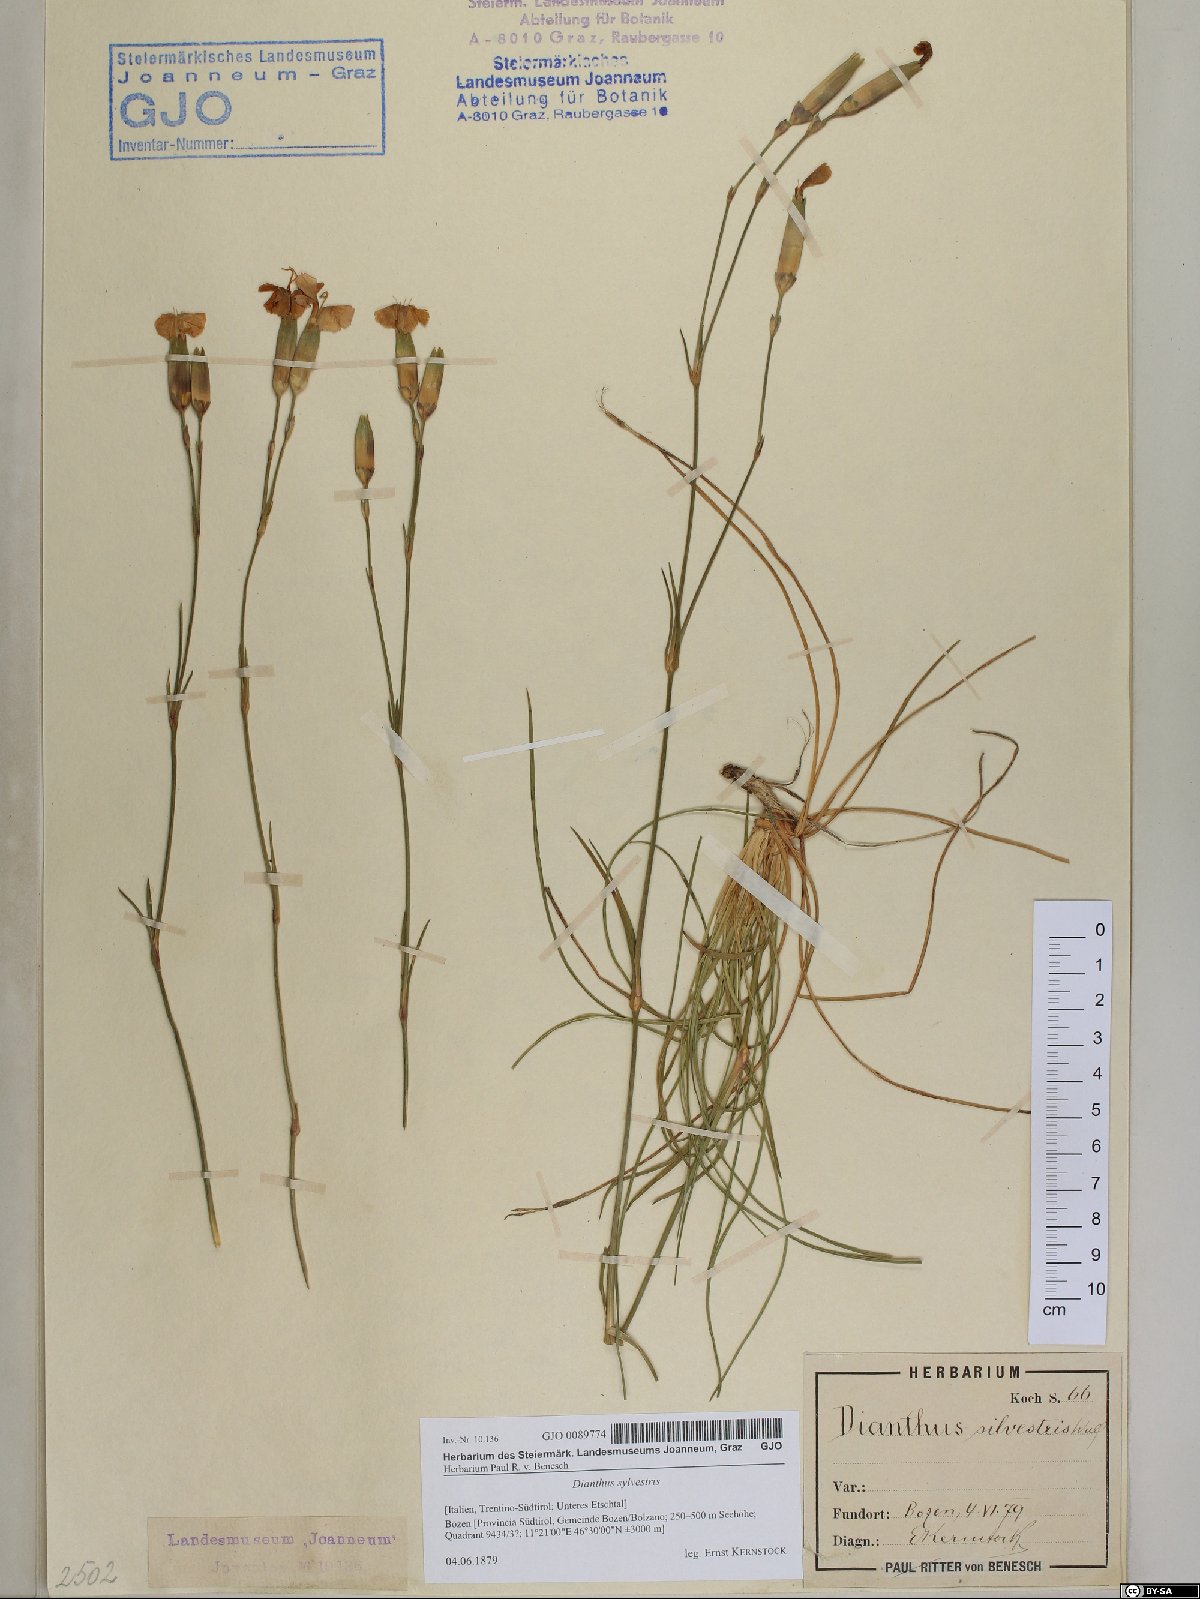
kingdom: Plantae
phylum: Tracheophyta
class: Magnoliopsida
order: Caryophyllales
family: Caryophyllaceae
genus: Dianthus
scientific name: Dianthus sylvestris
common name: Wood pink
